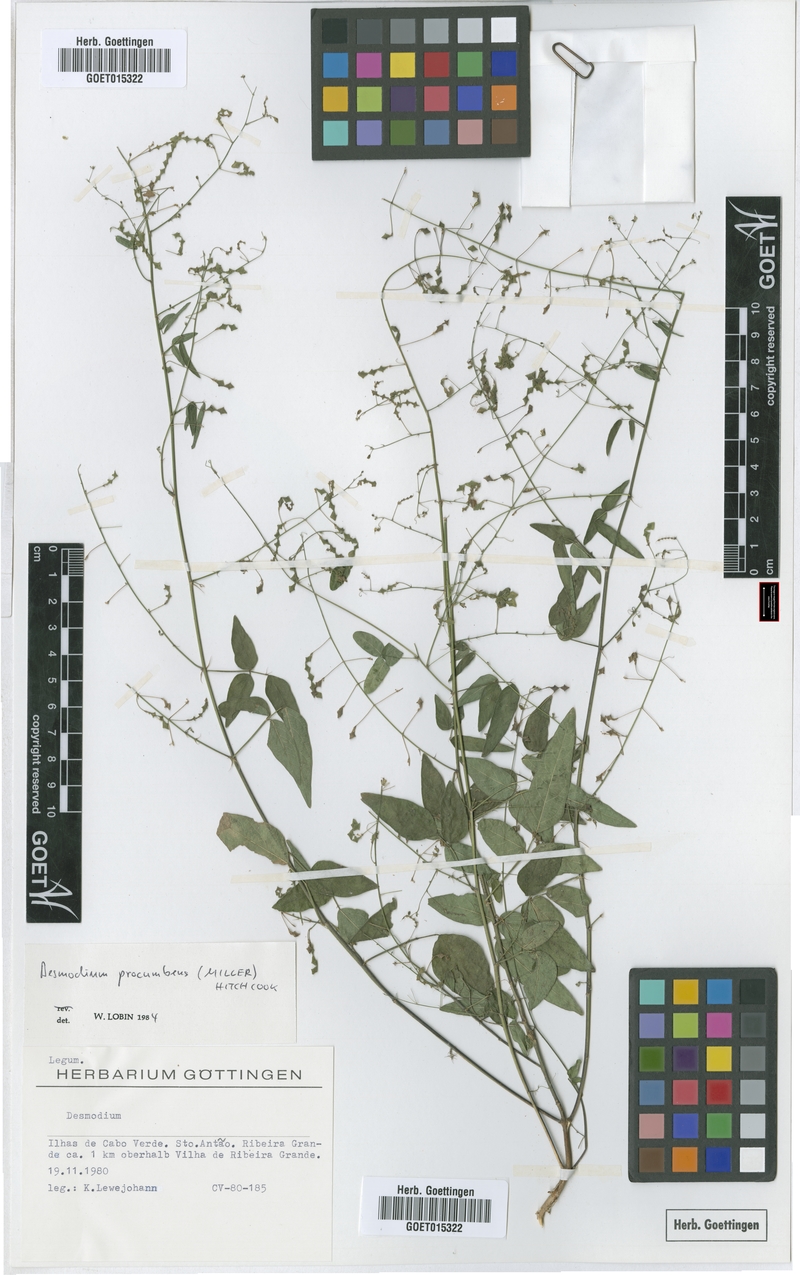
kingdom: Plantae
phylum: Tracheophyta
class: Magnoliopsida
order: Fabales
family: Fabaceae
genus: Desmodium
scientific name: Desmodium procumbens
